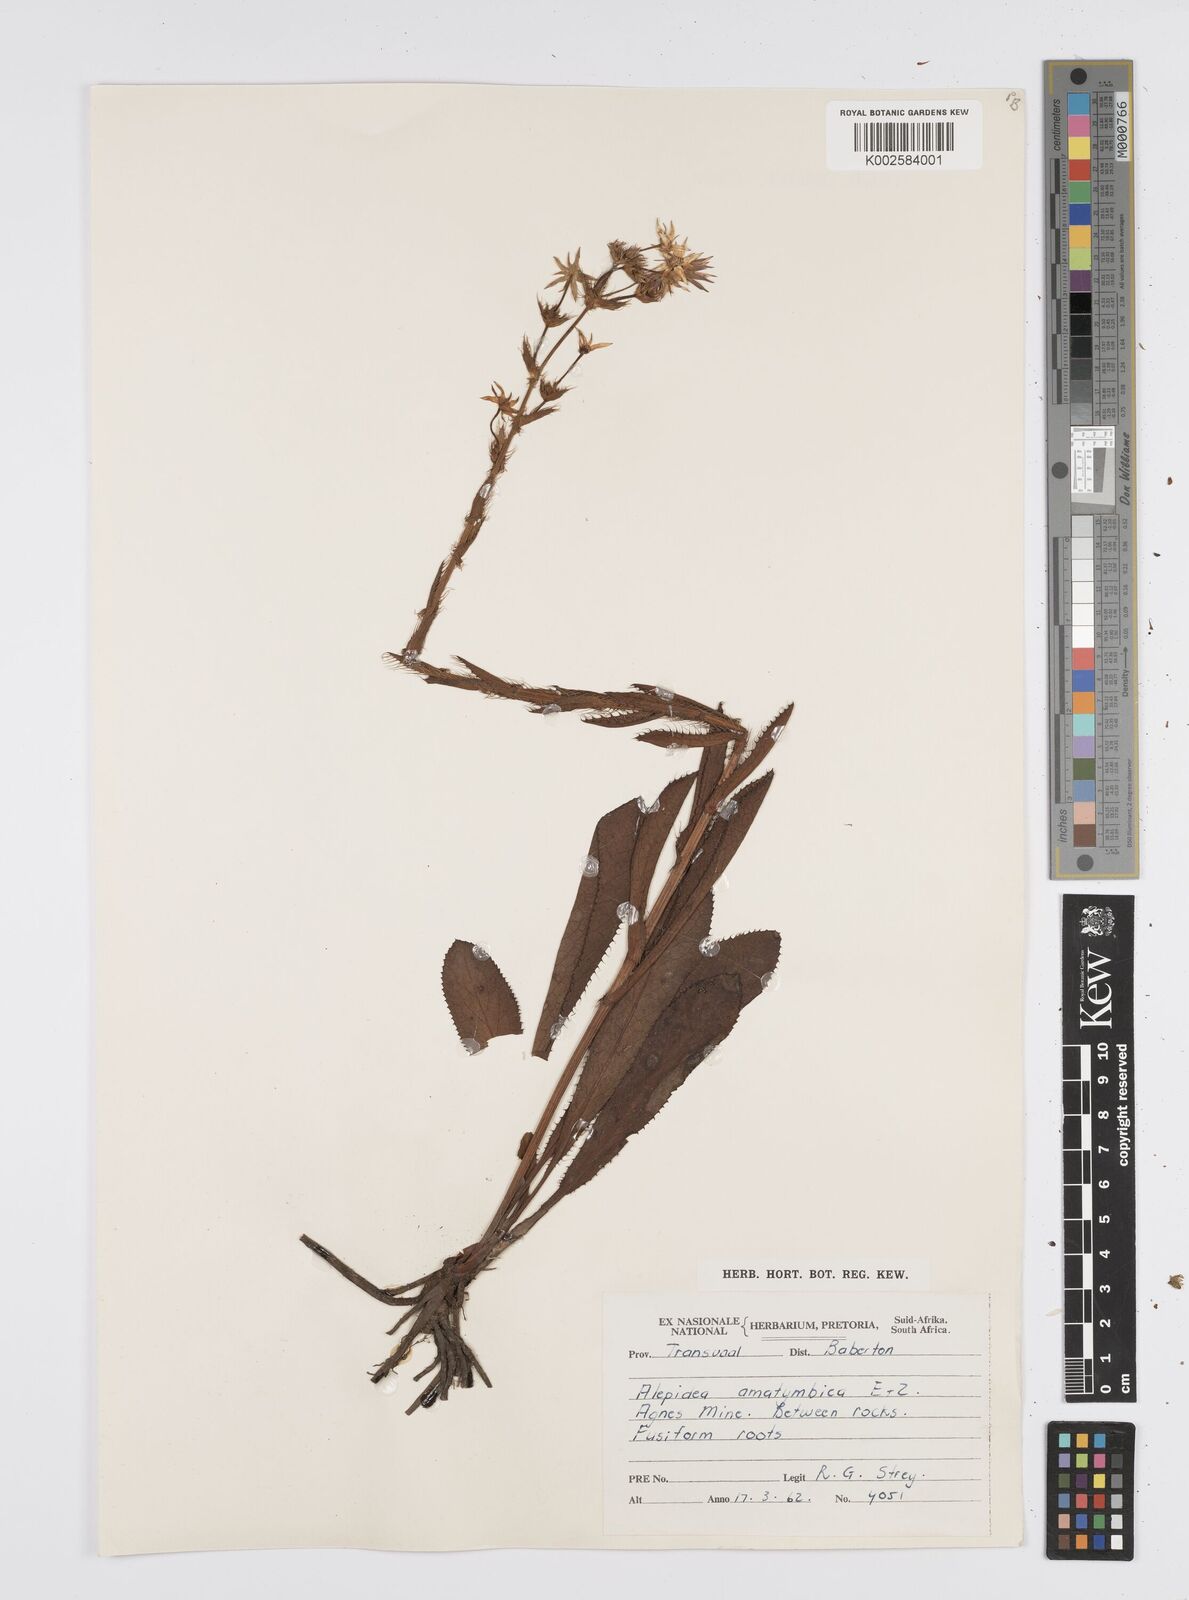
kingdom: Plantae
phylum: Tracheophyta
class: Magnoliopsida
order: Apiales
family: Apiaceae
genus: Alepidea
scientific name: Alepidea
